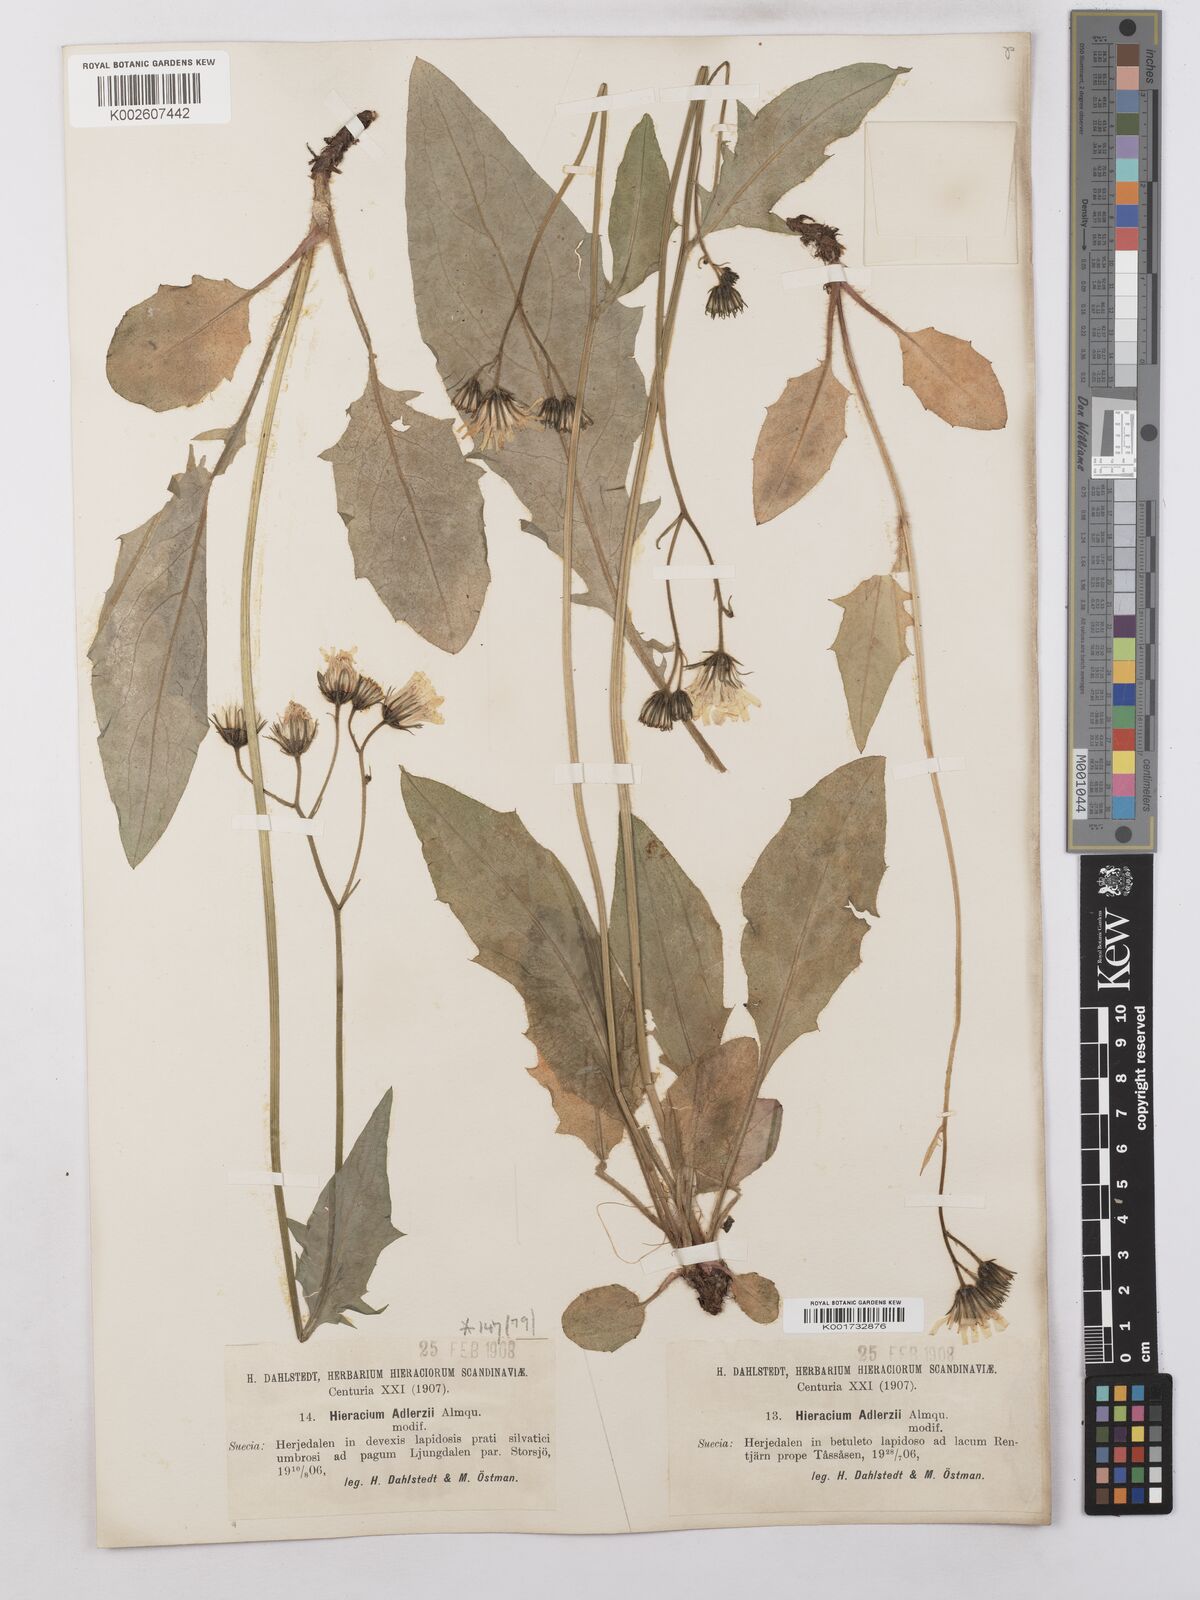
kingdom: Plantae
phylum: Tracheophyta
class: Magnoliopsida
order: Asterales
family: Asteraceae
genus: Hieracium
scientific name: Hieracium caesium
